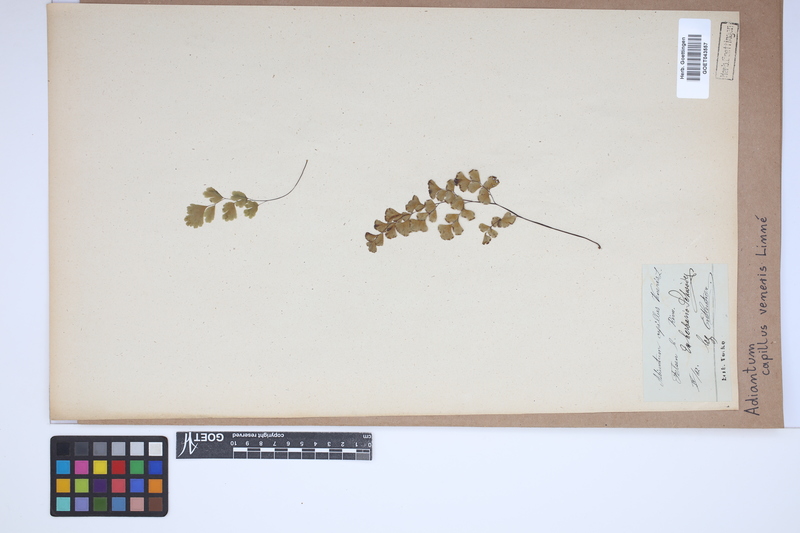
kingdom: Plantae
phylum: Tracheophyta
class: Polypodiopsida
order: Polypodiales
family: Pteridaceae
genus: Adiantum
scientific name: Adiantum capillus-veneris
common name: Maidenhair fern
